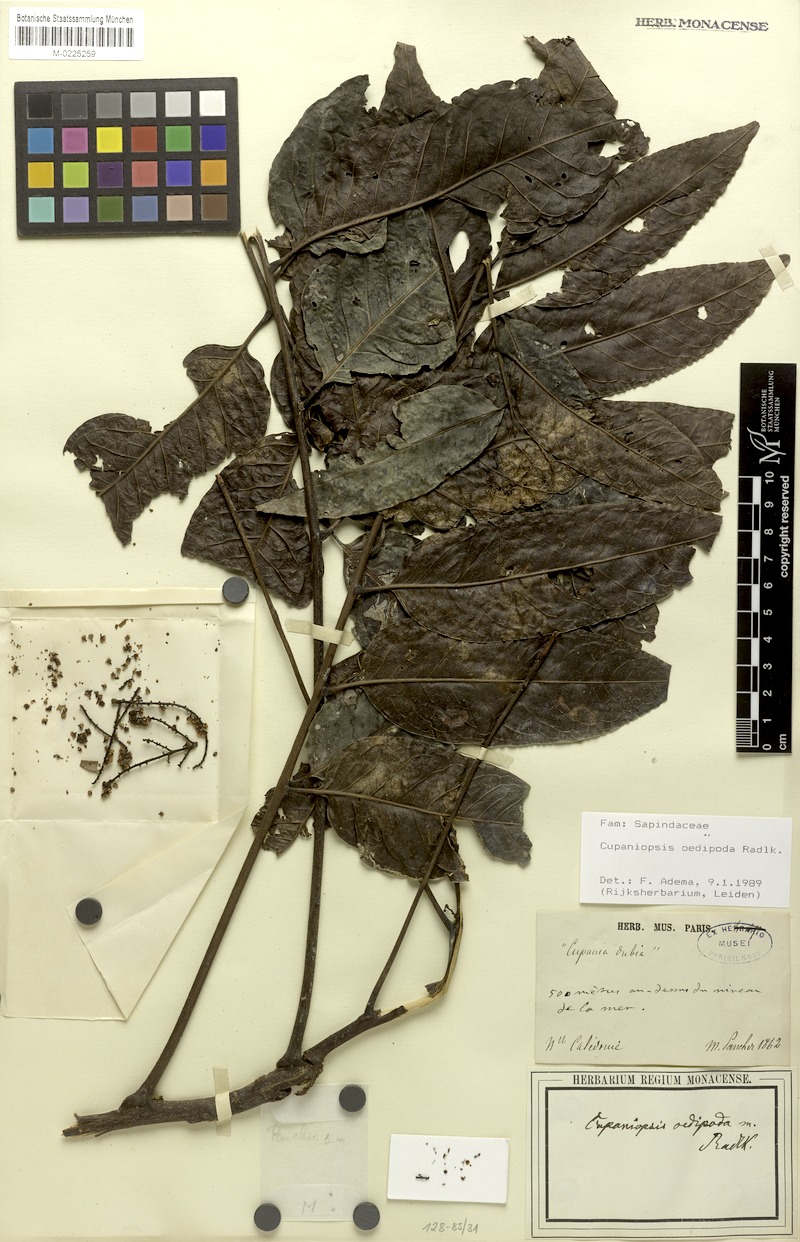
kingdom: Plantae
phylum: Tracheophyta
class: Magnoliopsida
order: Sapindales
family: Sapindaceae
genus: Lepidocupania
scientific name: Lepidocupania oedipoda
